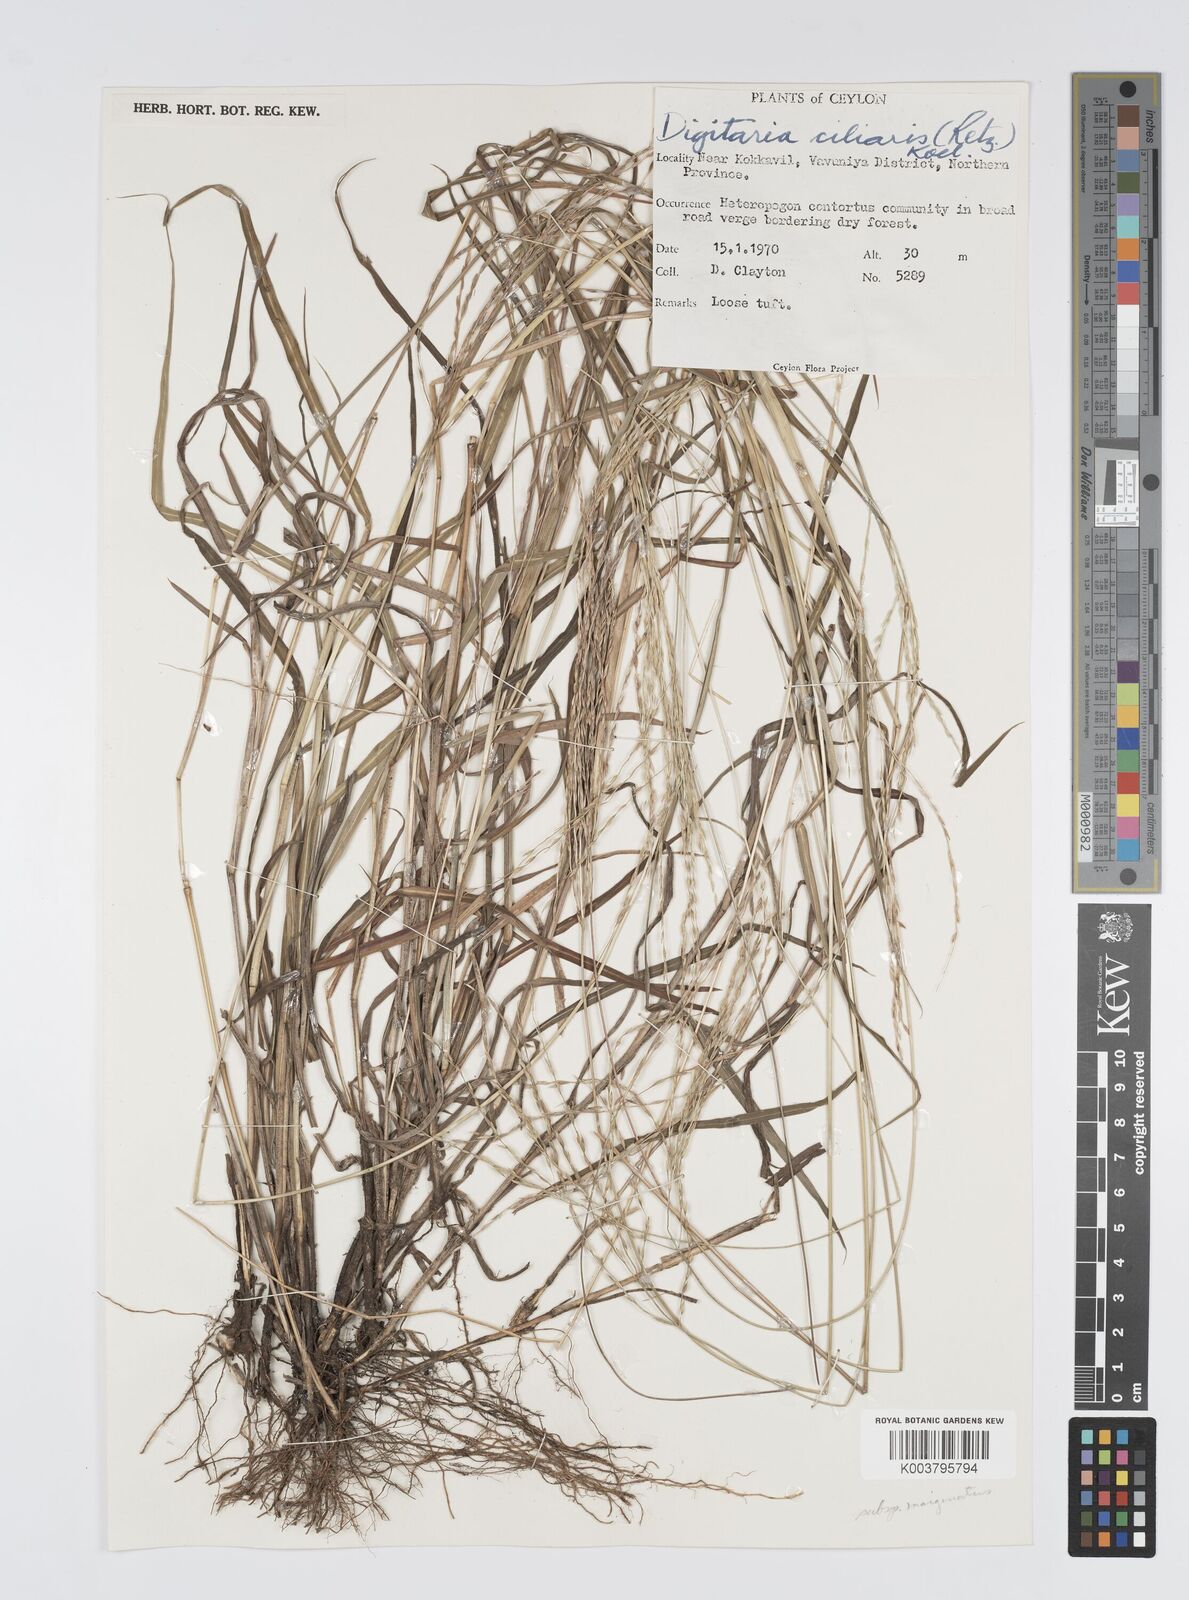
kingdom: Plantae
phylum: Tracheophyta
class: Liliopsida
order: Poales
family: Poaceae
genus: Digitaria
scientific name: Digitaria junghuhniana
